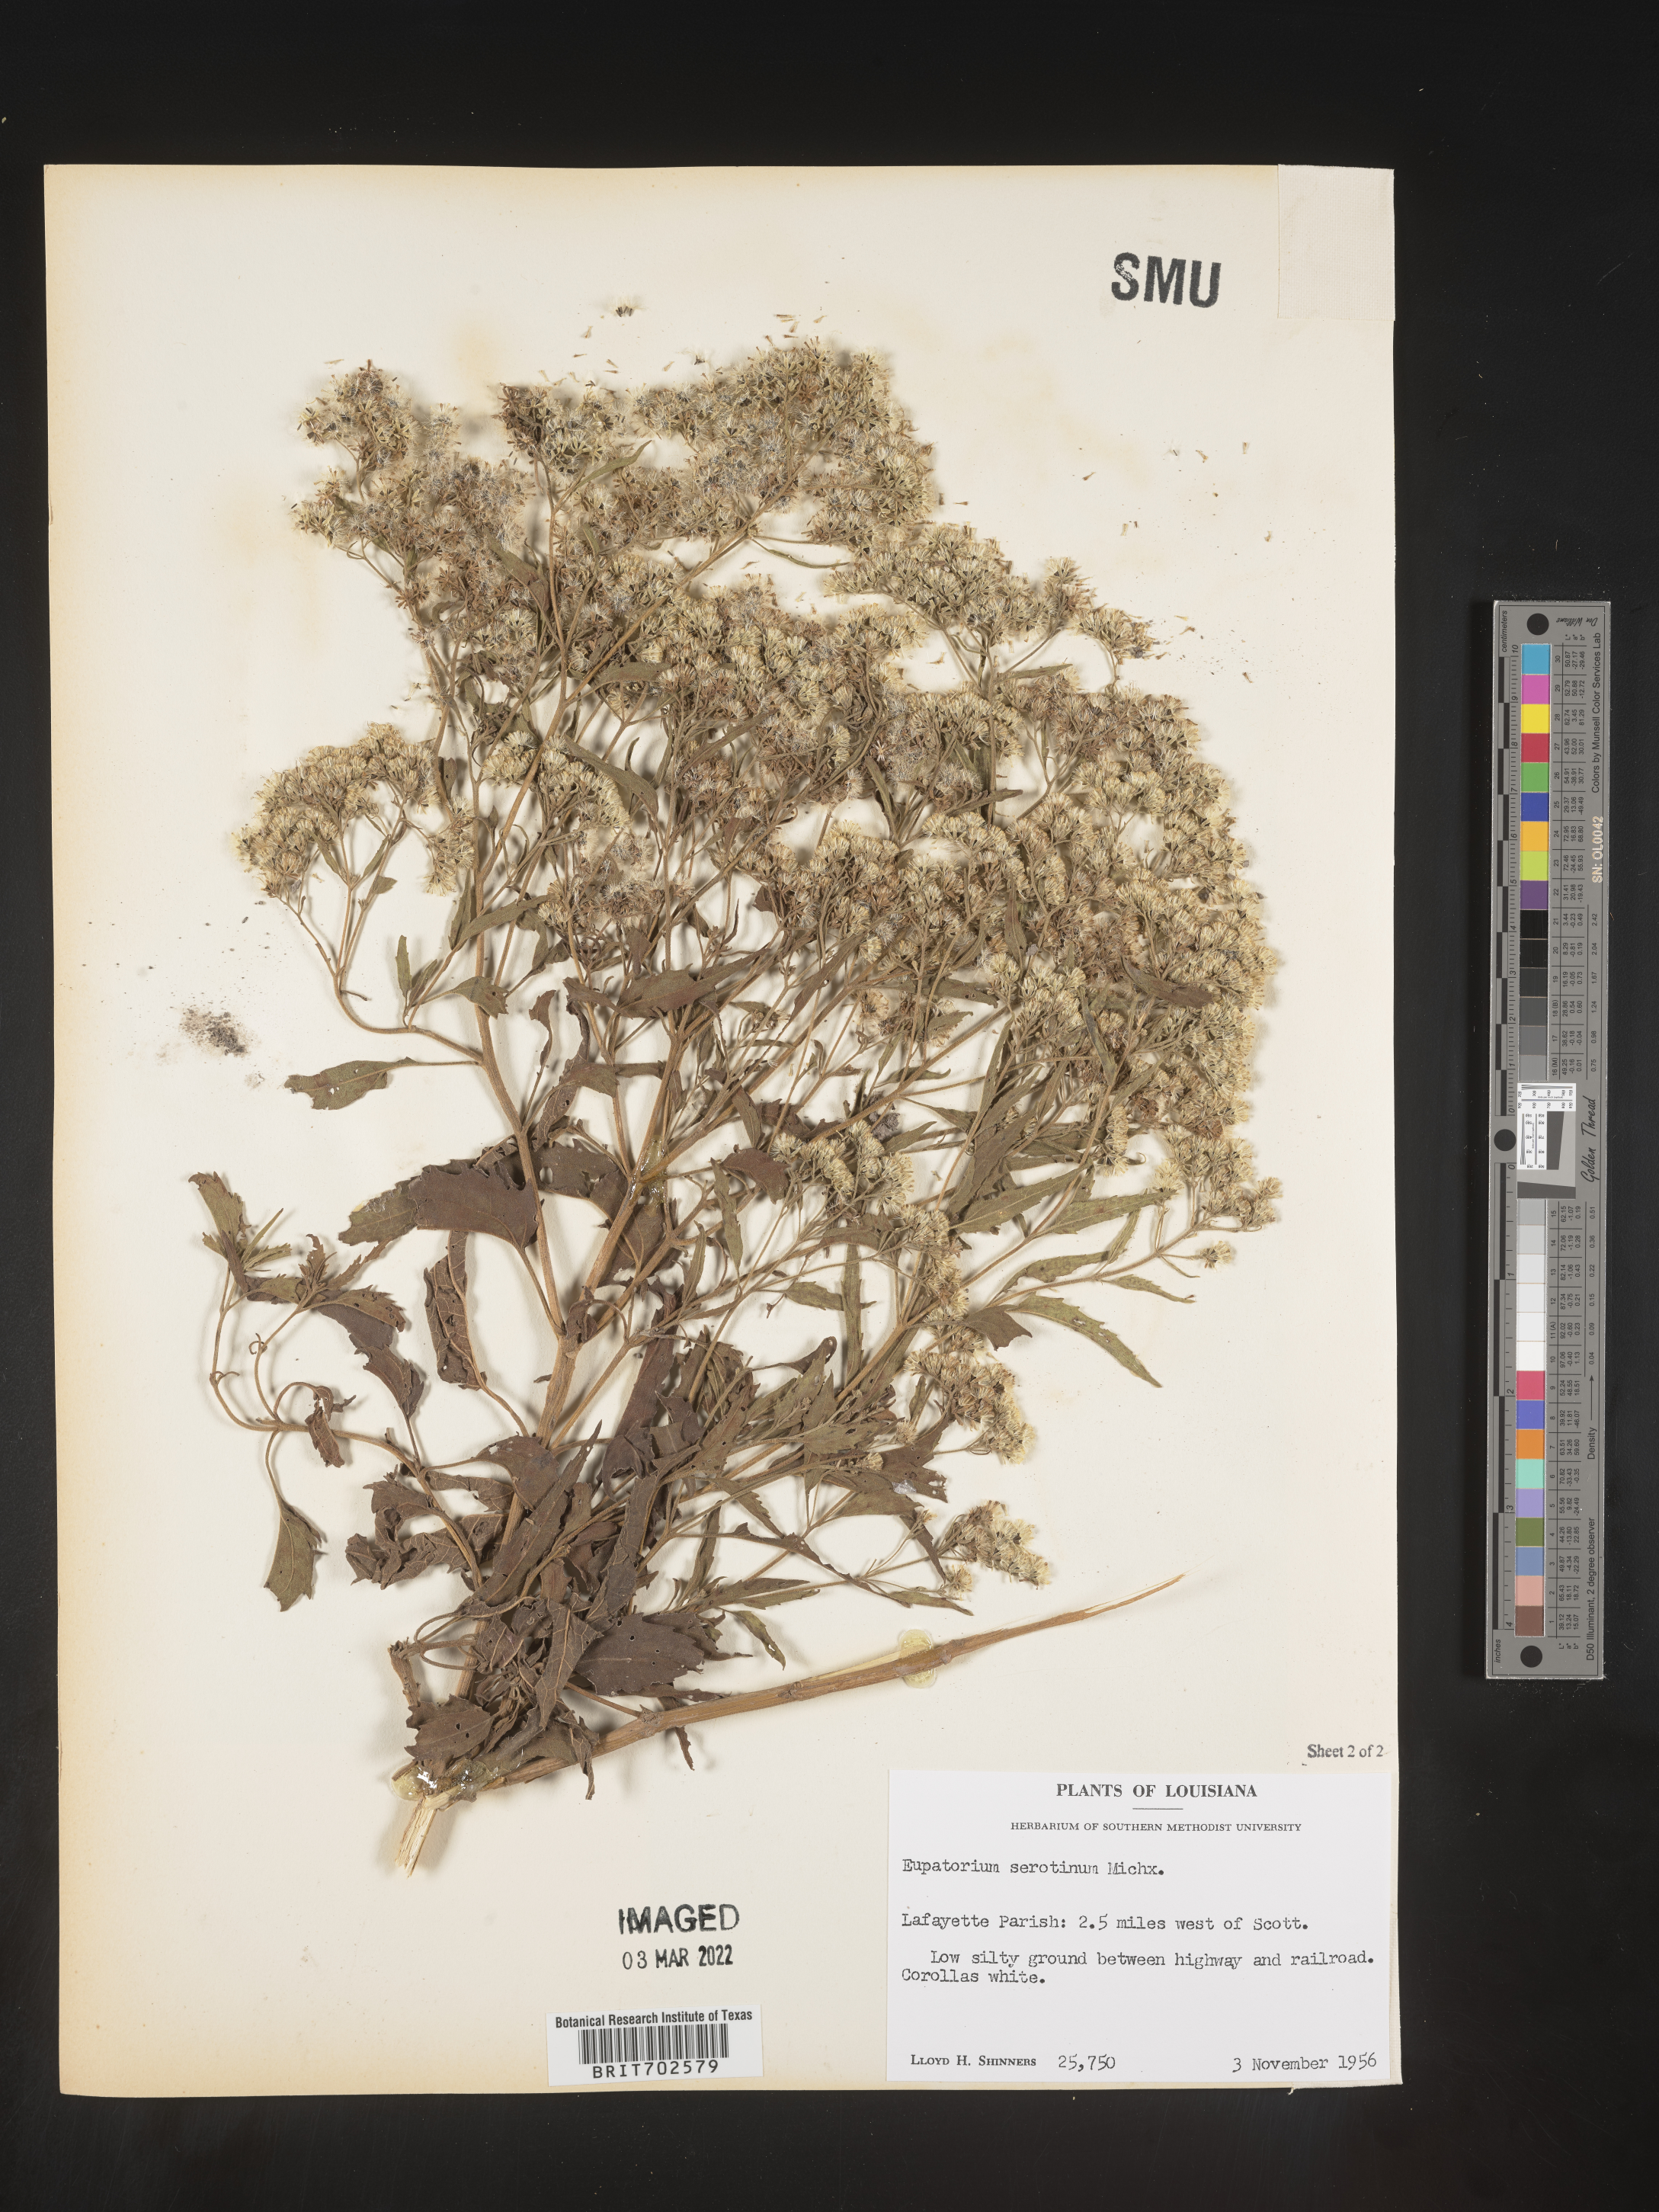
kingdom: Plantae
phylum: Tracheophyta
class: Magnoliopsida
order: Asterales
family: Asteraceae
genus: Eupatorium
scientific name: Eupatorium serotinum
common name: Late boneset
